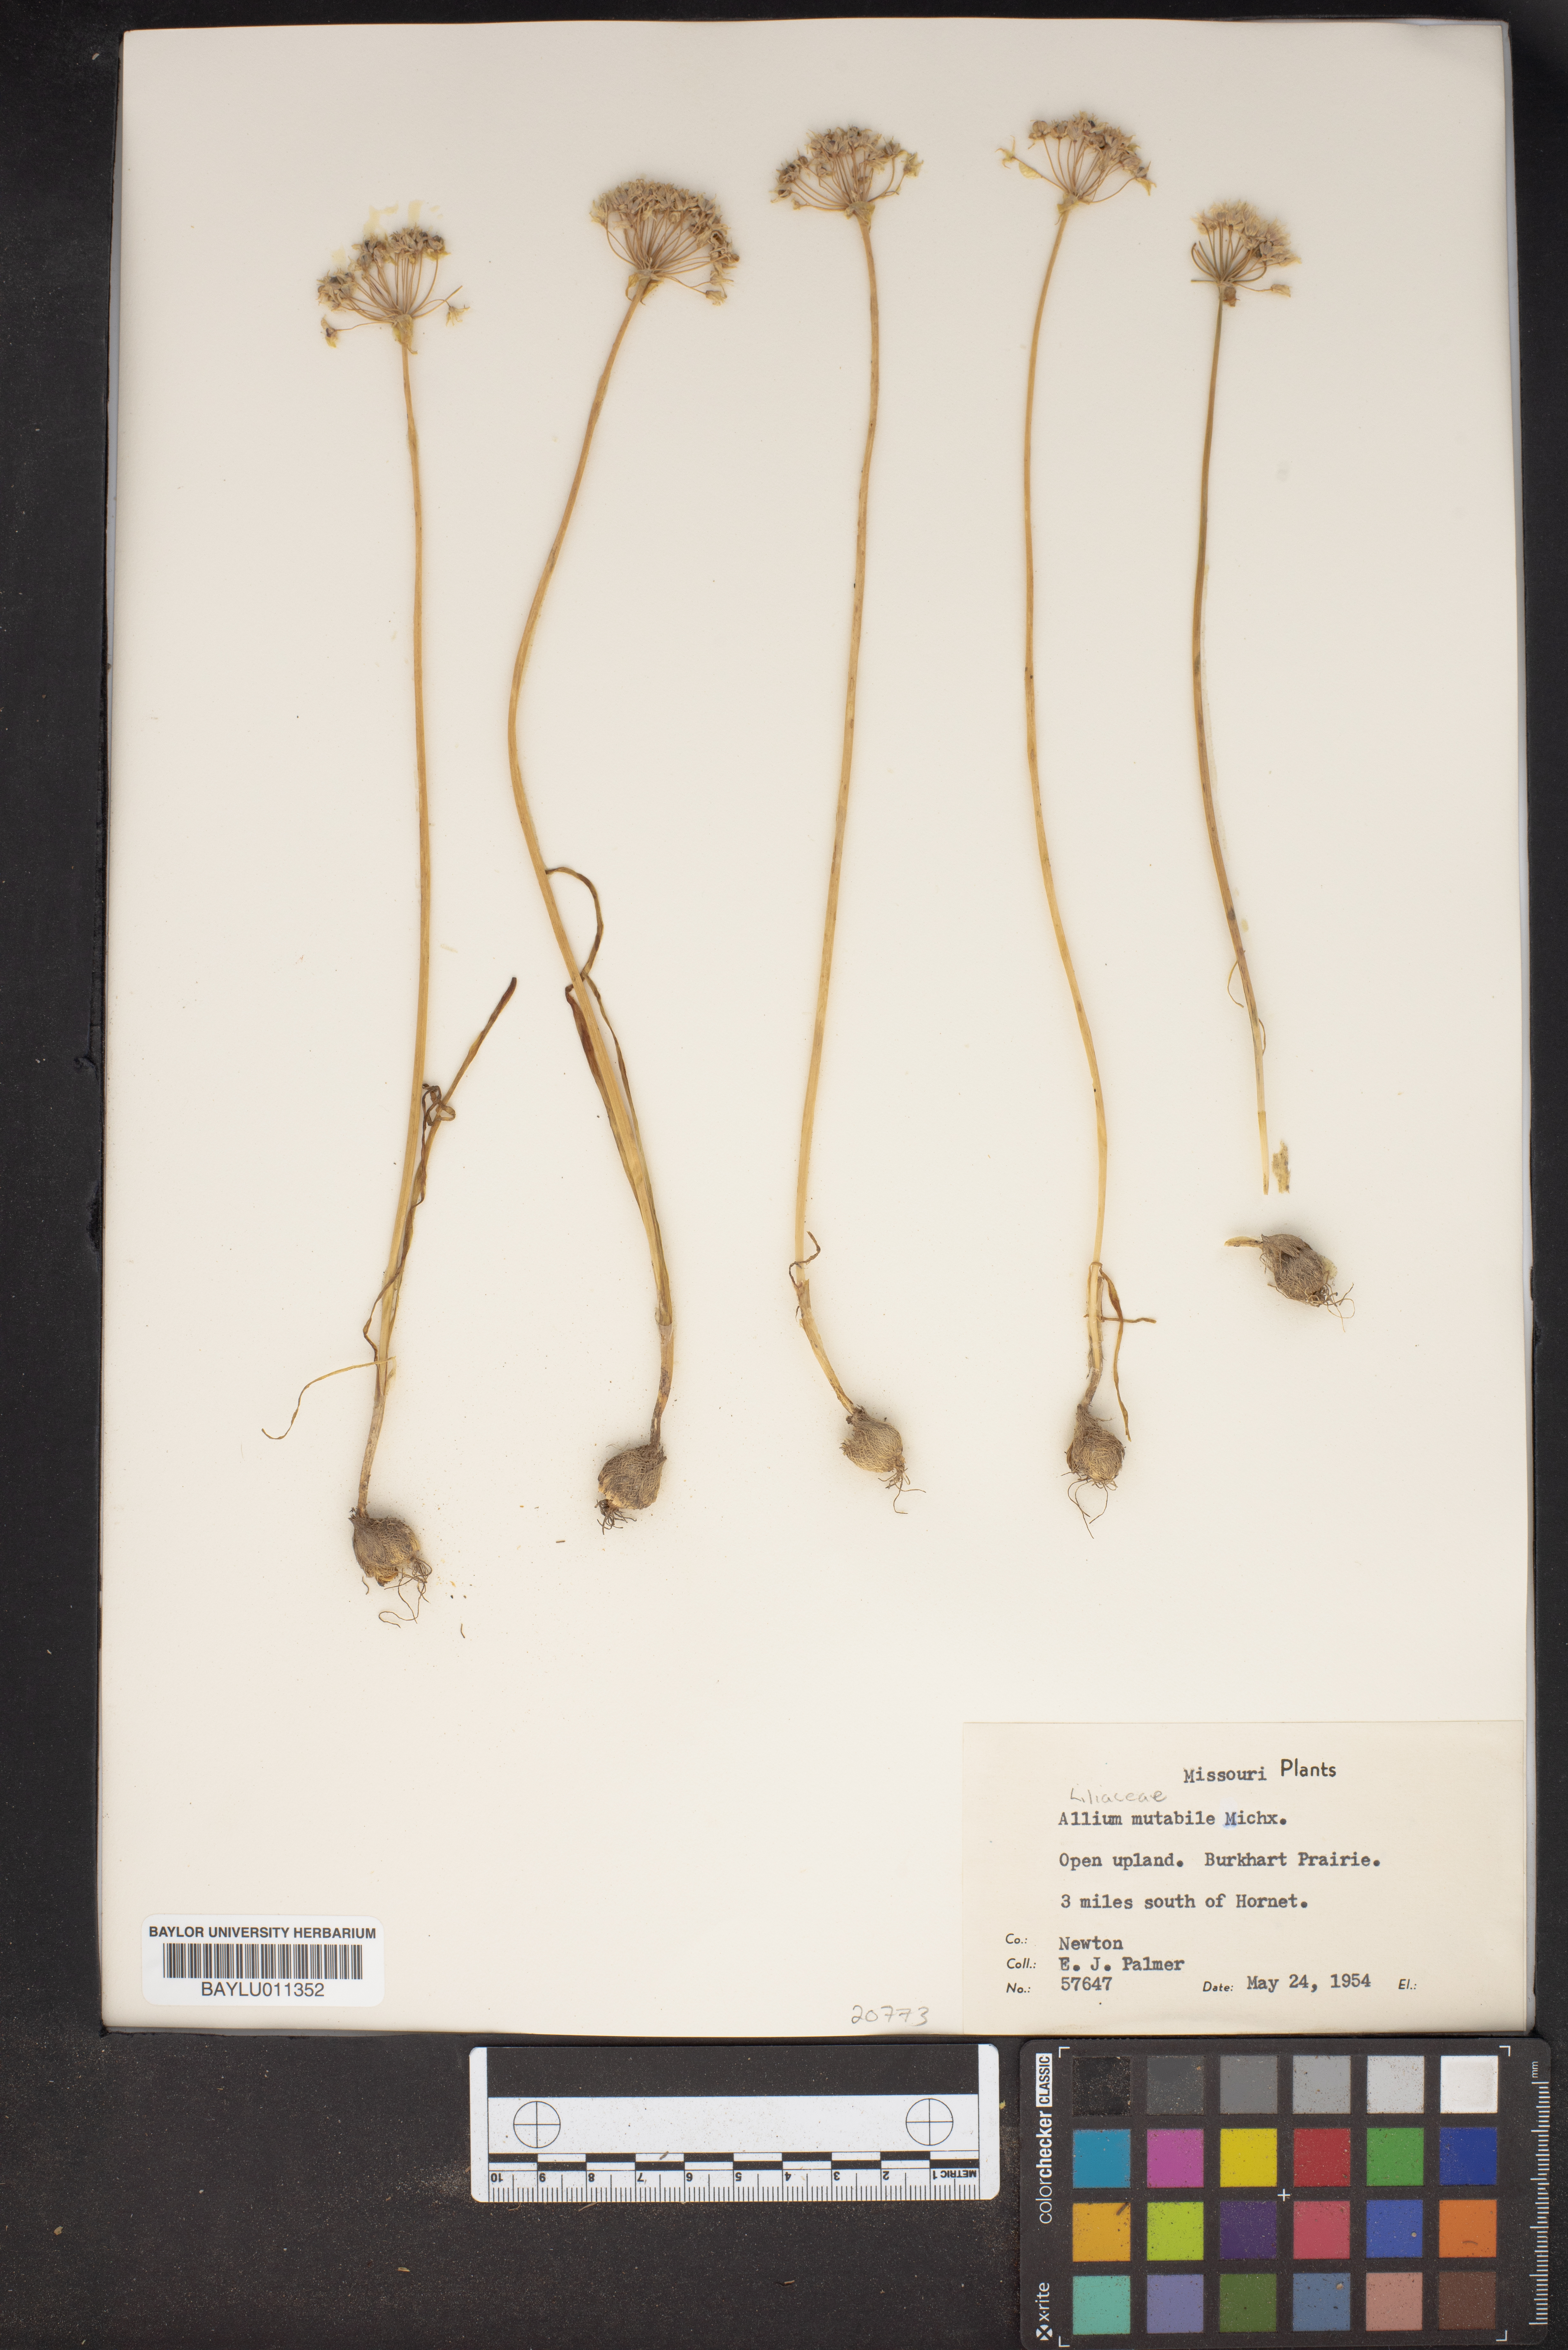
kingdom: Plantae
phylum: Tracheophyta
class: Liliopsida
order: Asparagales
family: Amaryllidaceae
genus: Allium
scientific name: Allium canadense
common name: Meadow garlic
